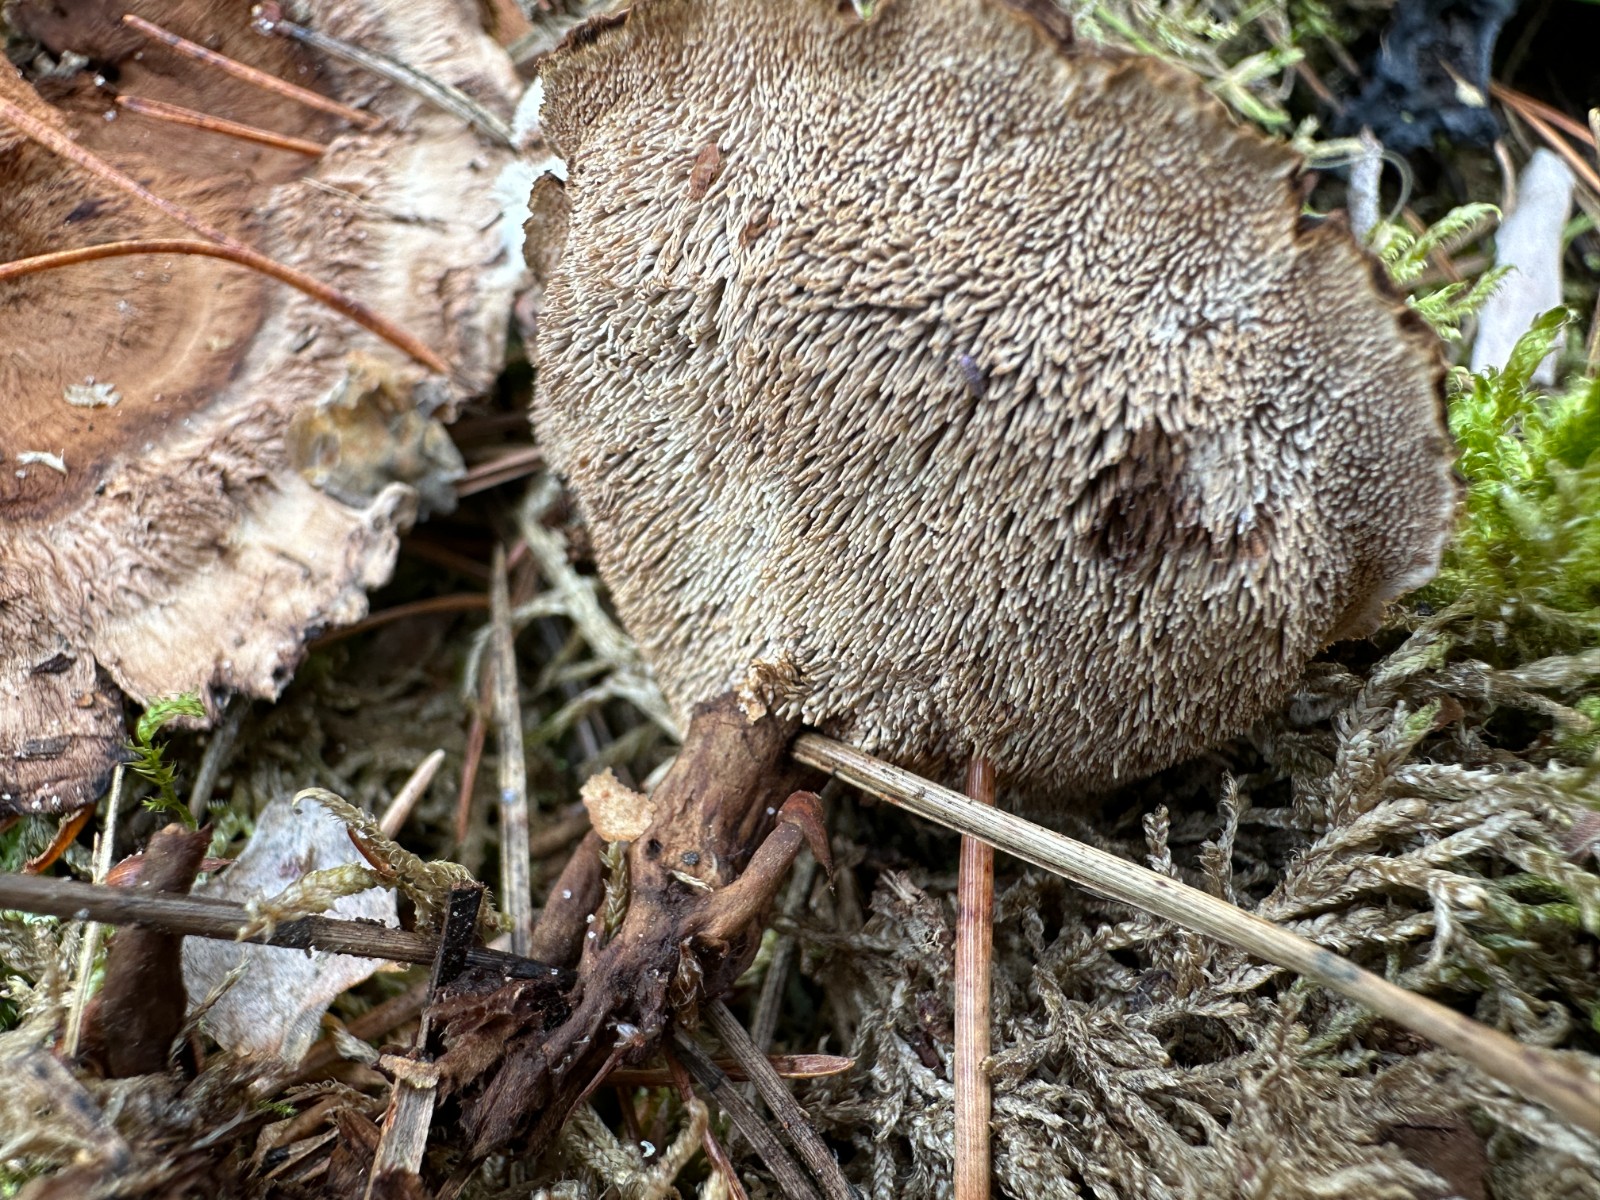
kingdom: Fungi
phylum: Basidiomycota
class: Agaricomycetes
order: Thelephorales
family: Thelephoraceae
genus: Phellodon
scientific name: Phellodon tomentosus
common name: tragtformet duftpigsvamp
